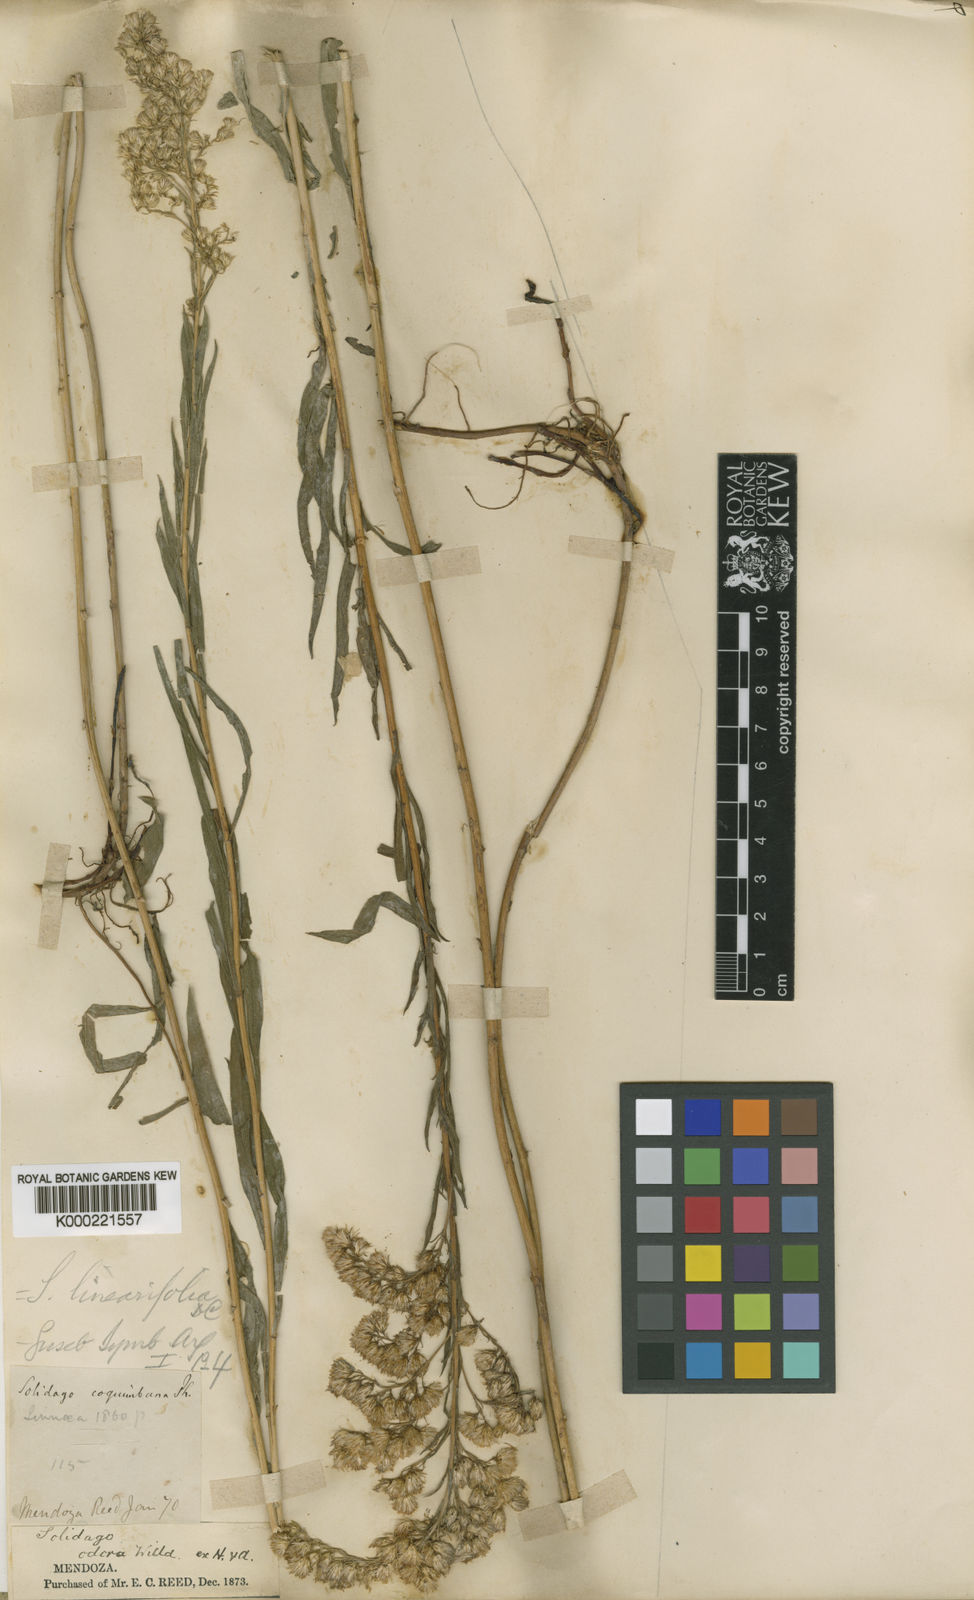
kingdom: Plantae
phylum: Tracheophyta
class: Magnoliopsida
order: Asterales
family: Asteraceae
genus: Solidago
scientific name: Solidago chilensis
